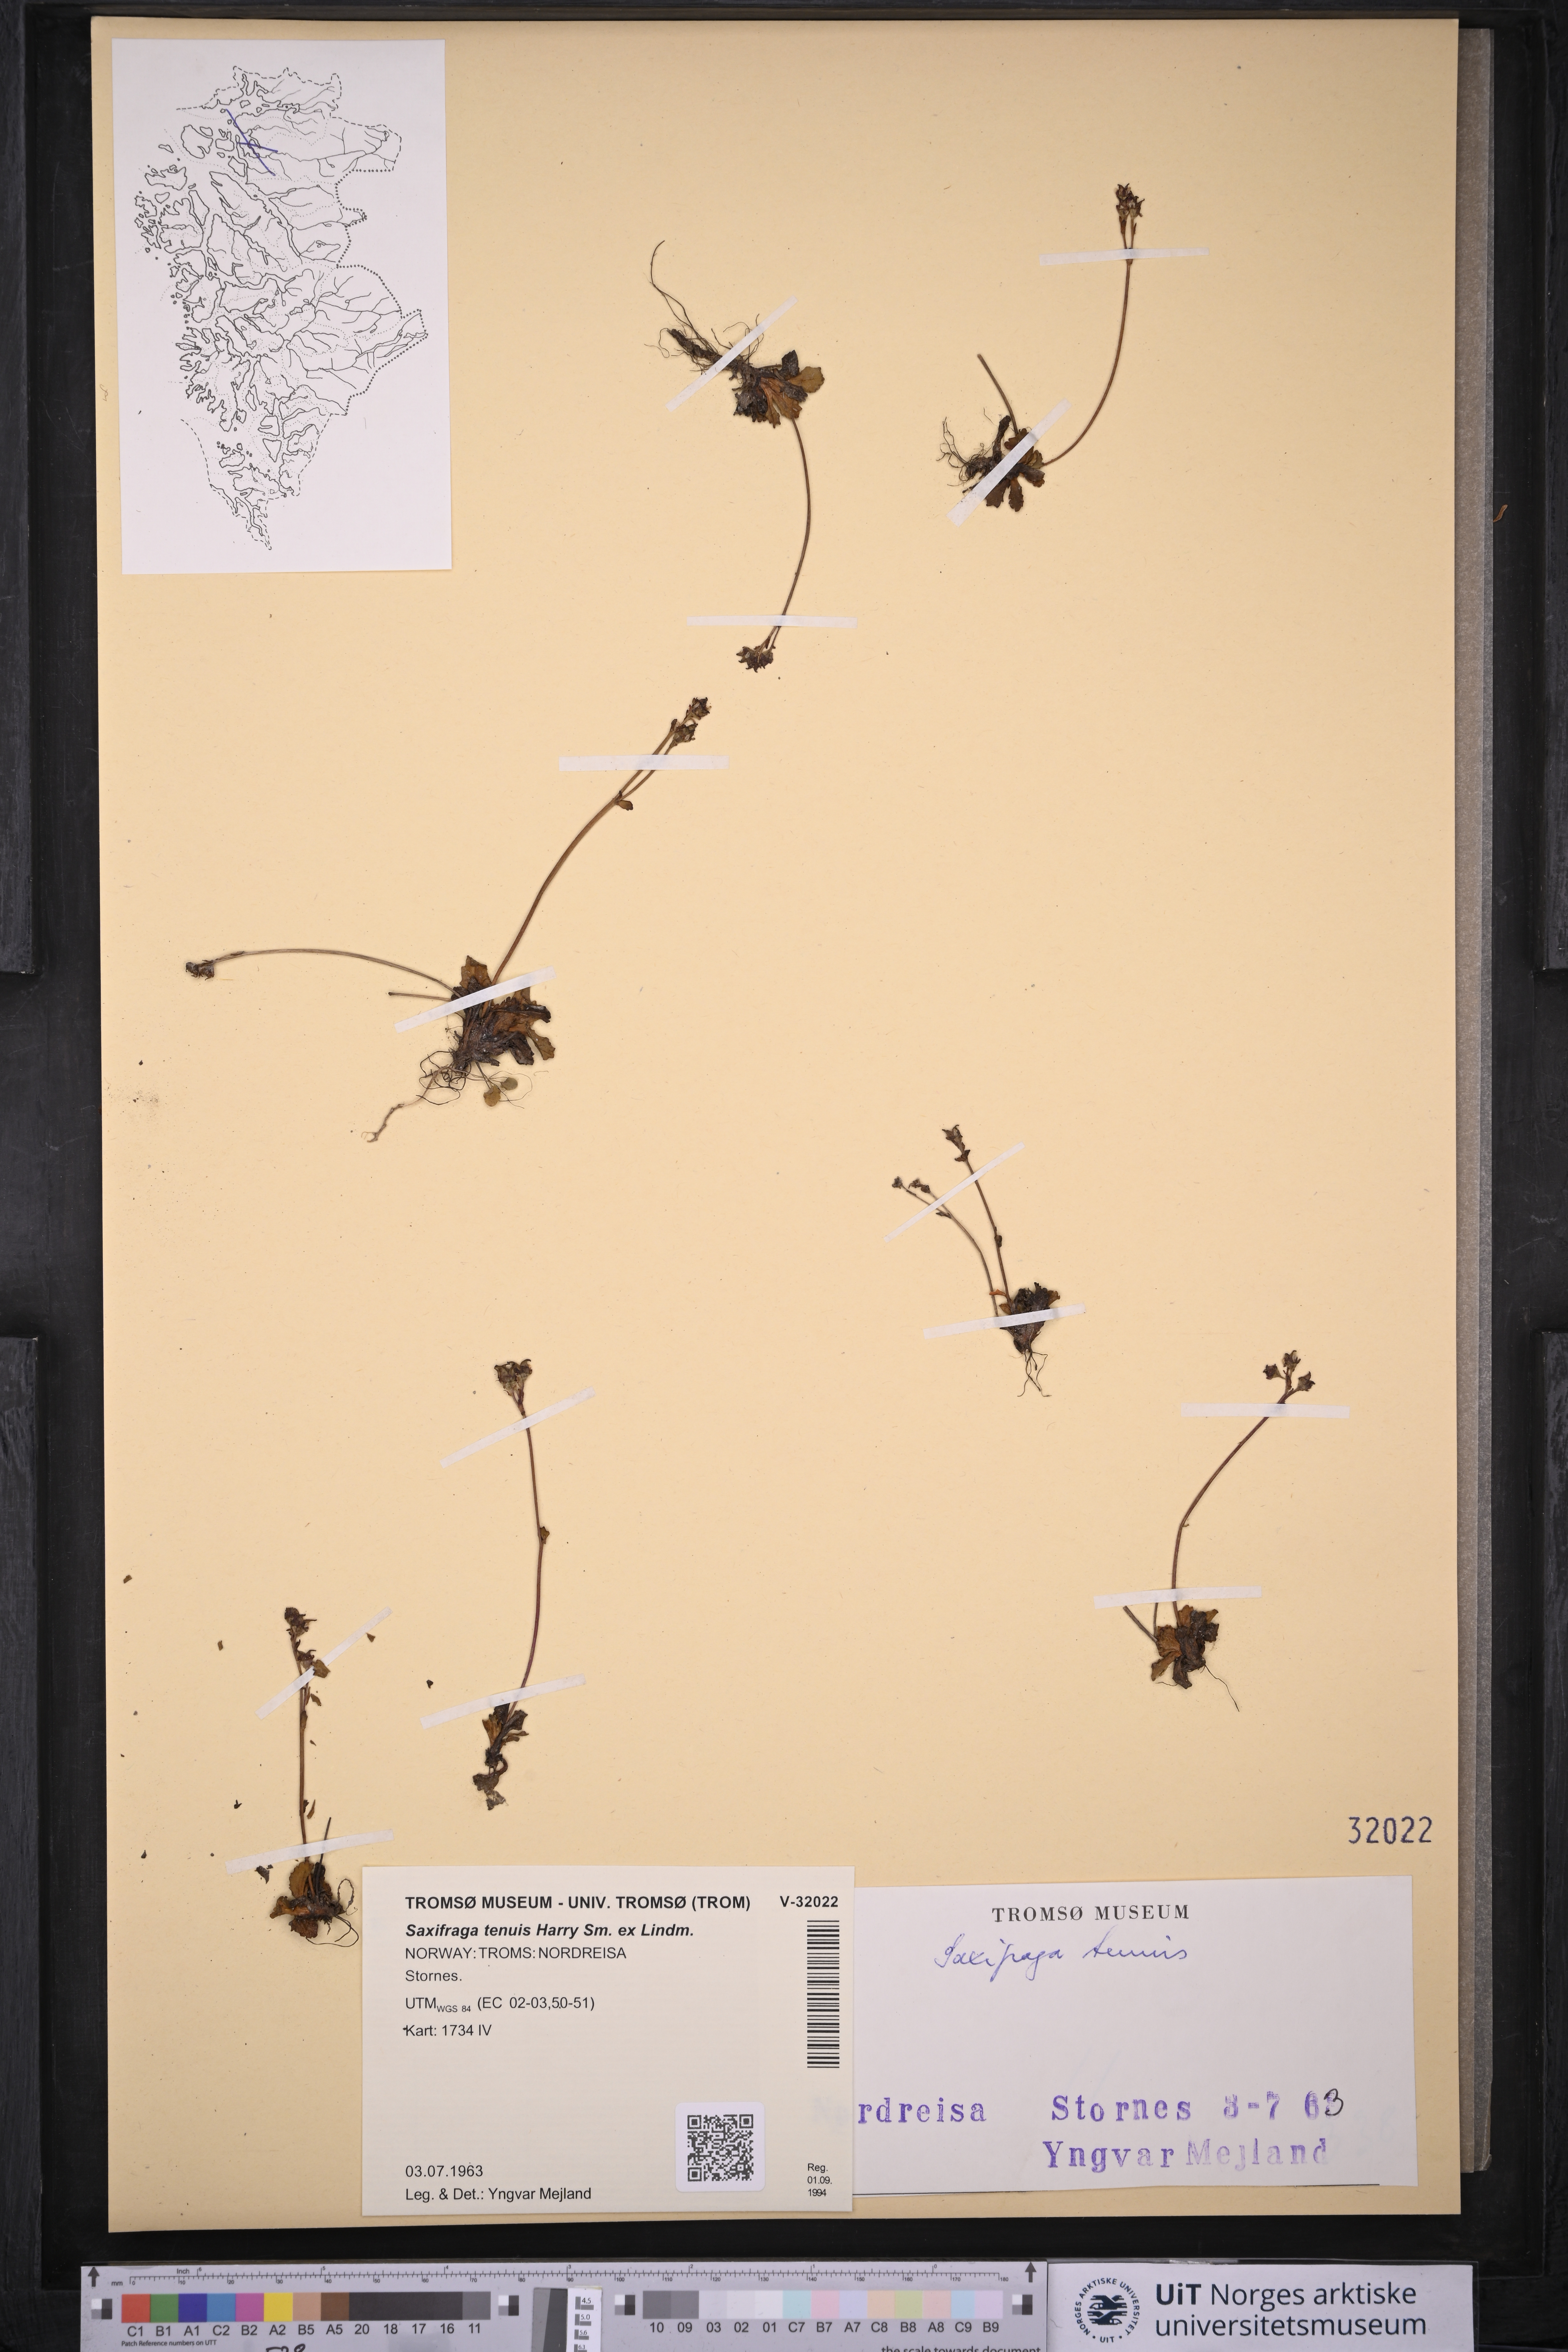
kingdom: Plantae
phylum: Tracheophyta
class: Magnoliopsida
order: Saxifragales
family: Saxifragaceae
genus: Micranthes
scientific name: Micranthes tenuis
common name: Ottertail pass saxifrage
